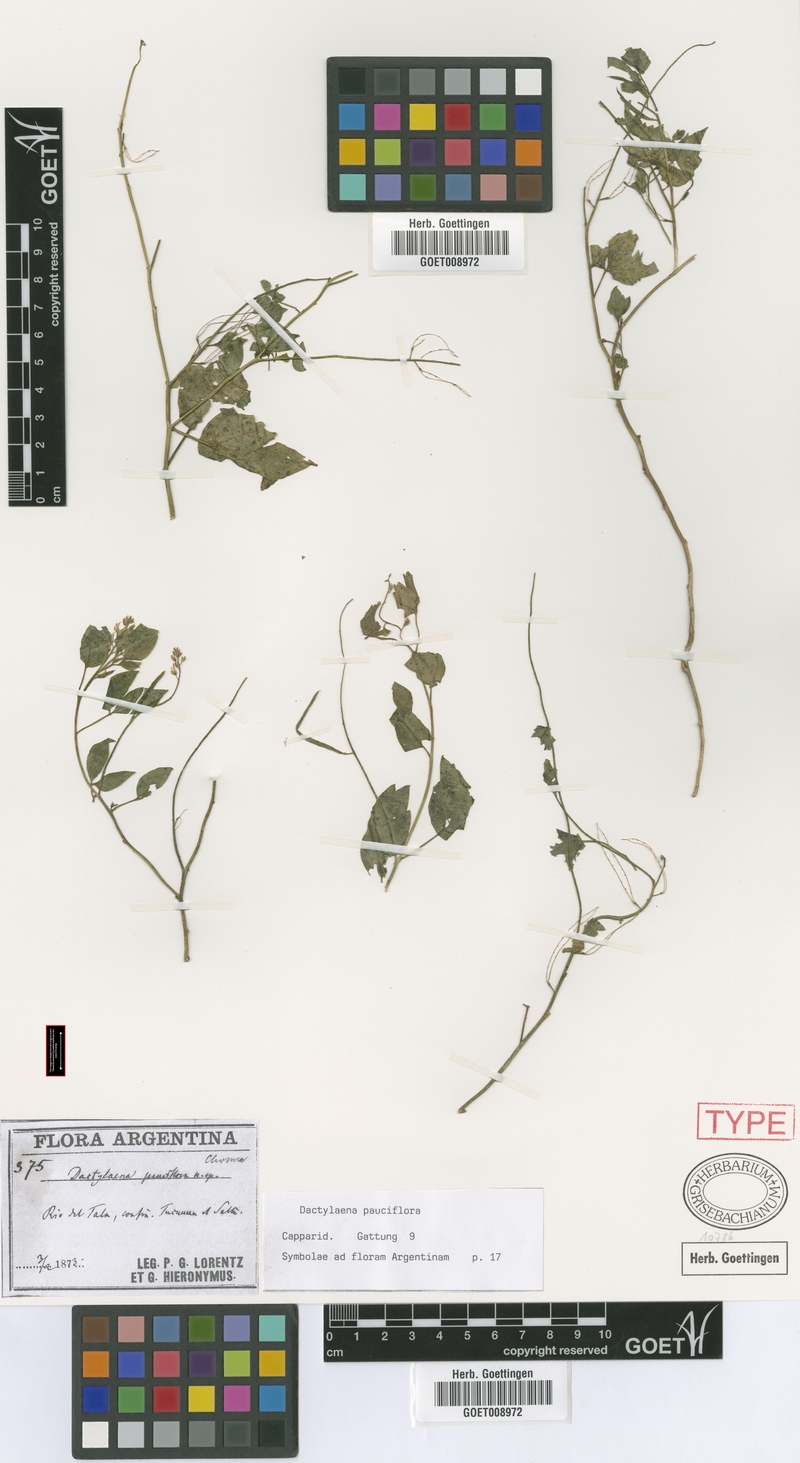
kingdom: Plantae
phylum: Tracheophyta
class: Magnoliopsida
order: Brassicales
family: Cleomaceae
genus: Dactylaena
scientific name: Dactylaena pauciflora
